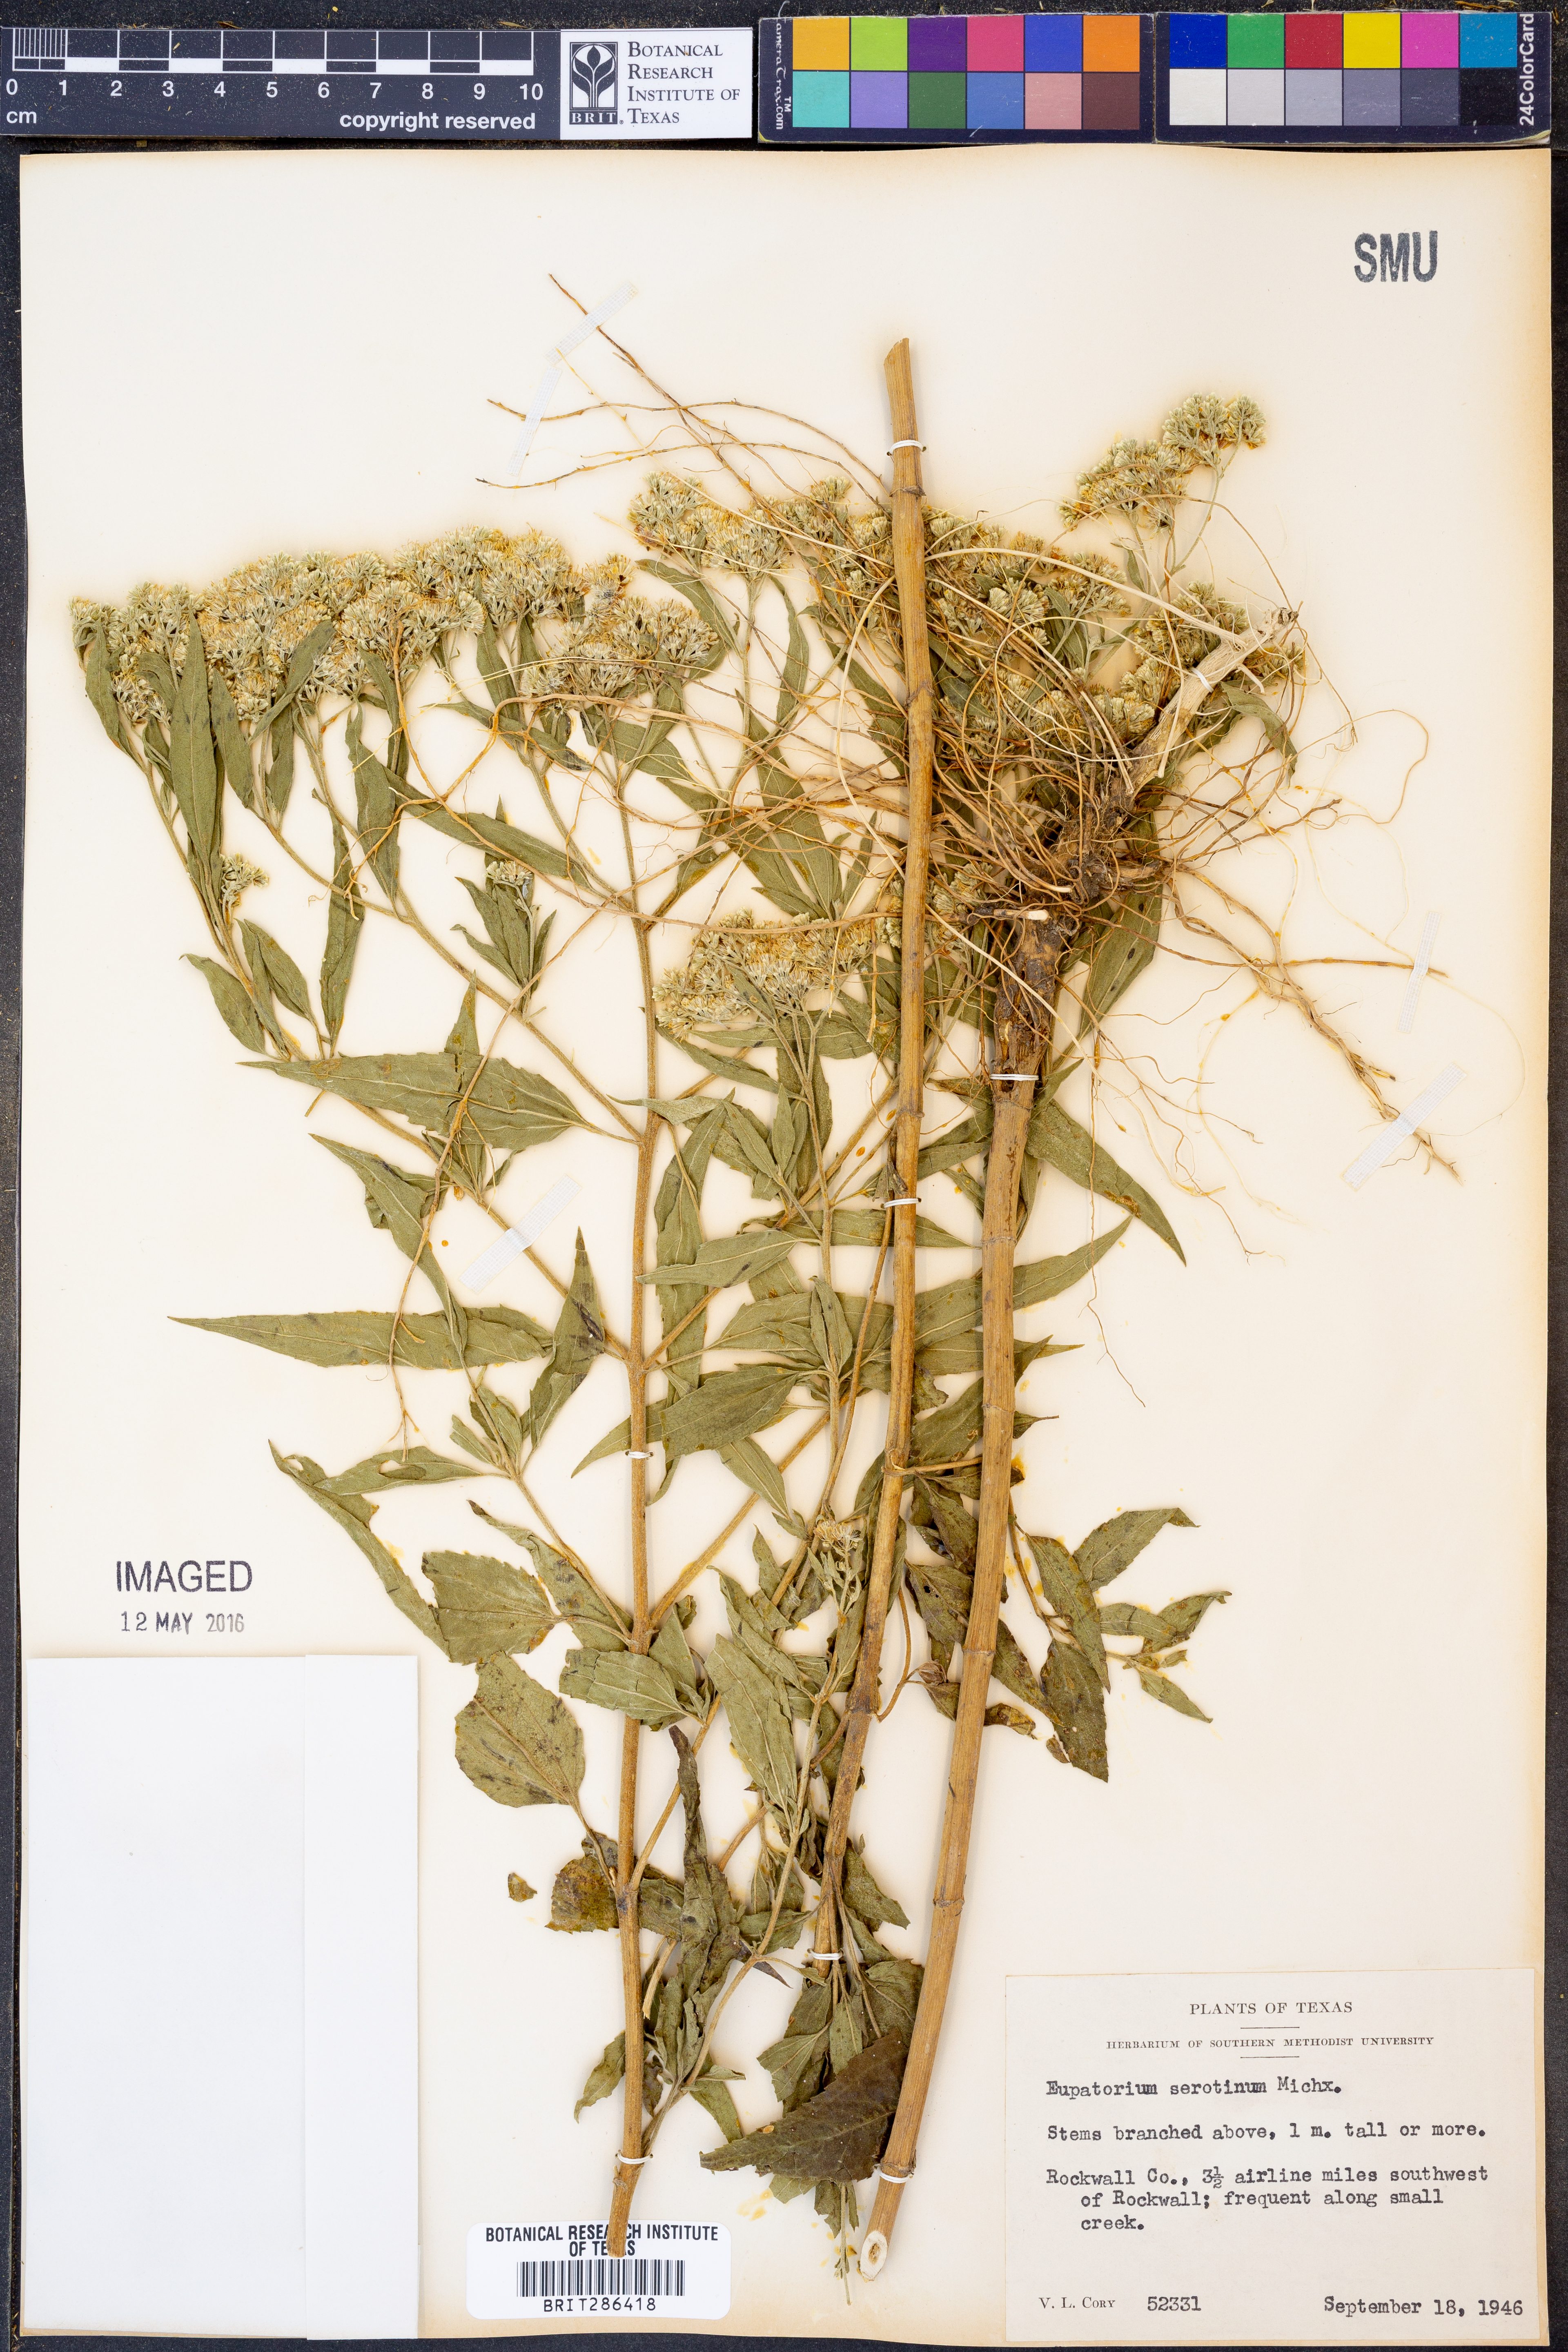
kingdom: Plantae
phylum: Tracheophyta
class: Magnoliopsida
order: Asterales
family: Asteraceae
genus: Eupatorium
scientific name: Eupatorium serotinum
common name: Late boneset
